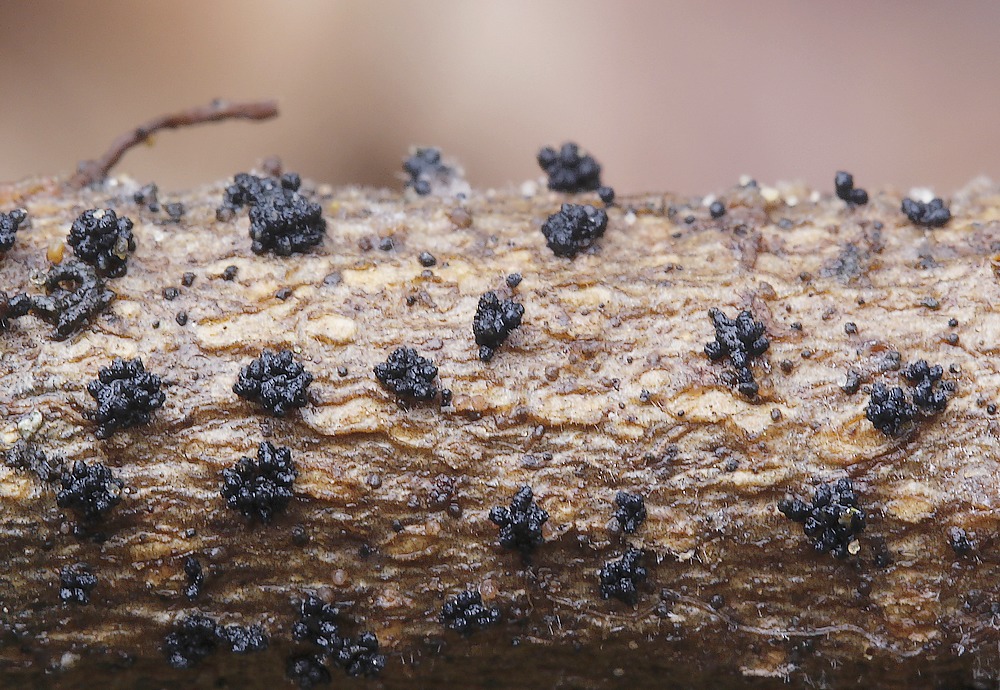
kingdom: Fungi
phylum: Ascomycota
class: Sordariomycetes
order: Hypocreales
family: Nectriaceae
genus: Fusarium
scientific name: Fusarium roseum
